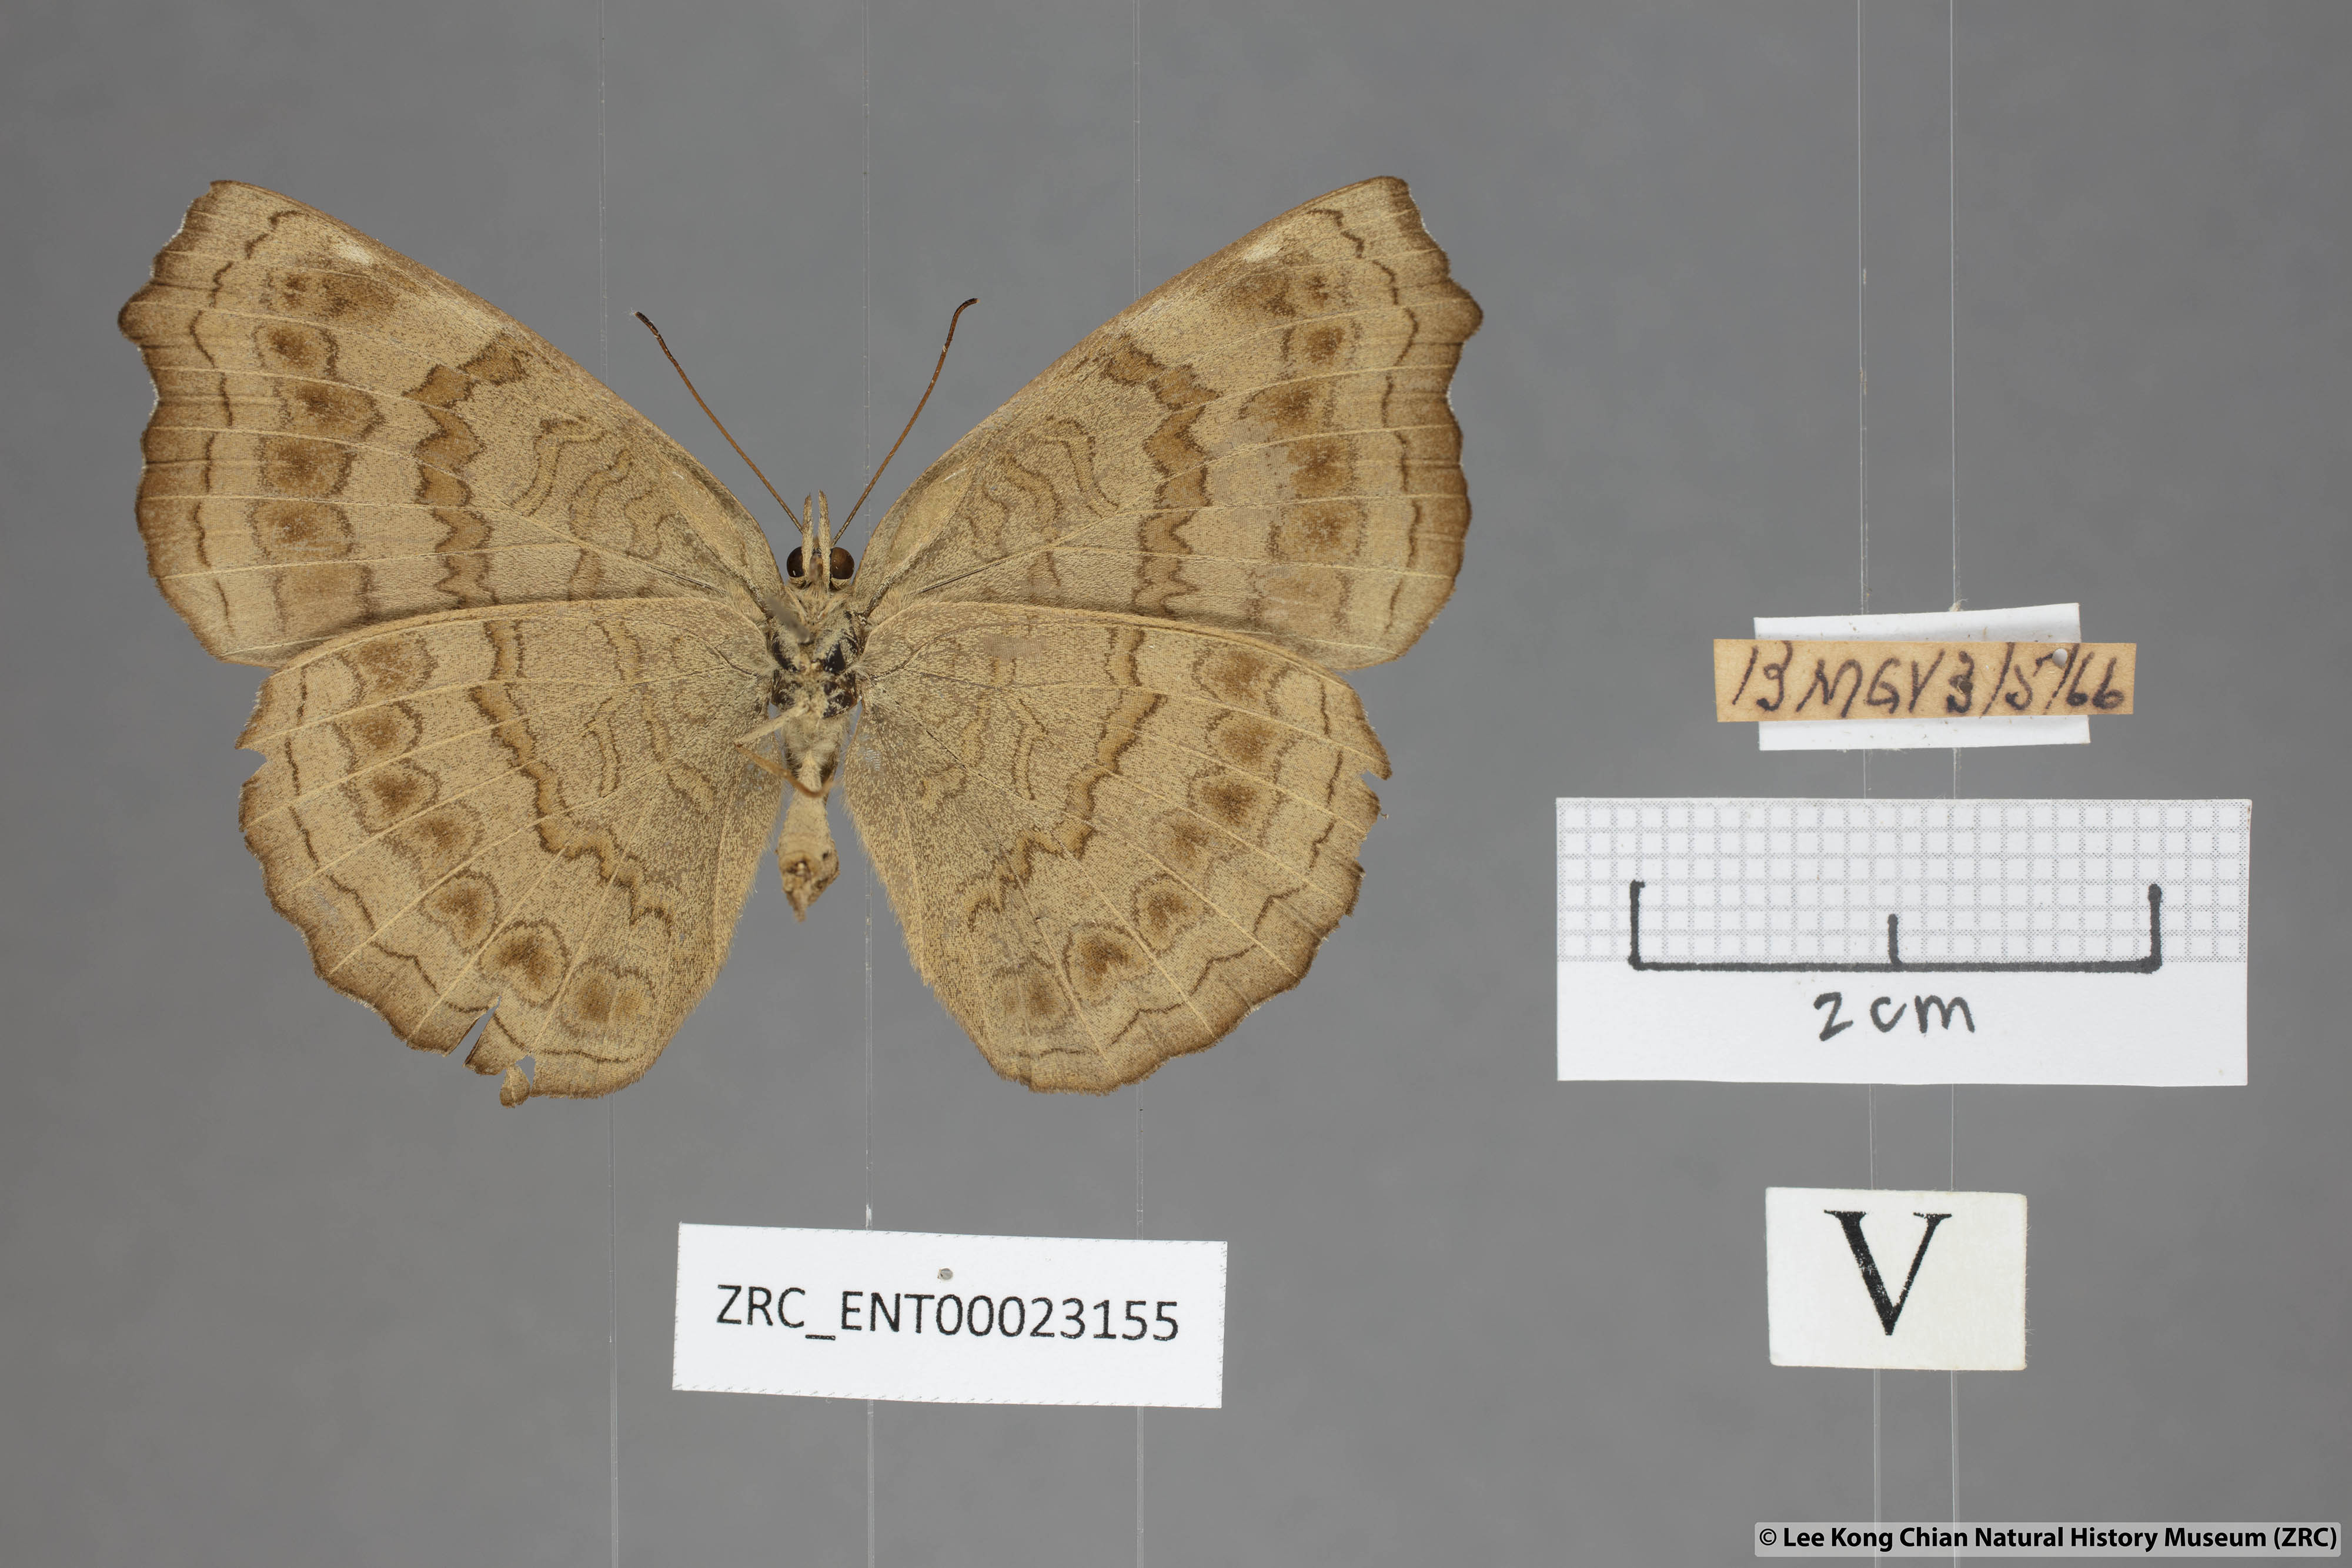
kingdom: Animalia
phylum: Arthropoda
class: Insecta
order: Lepidoptera
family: Nymphalidae
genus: Ariadne
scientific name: Ariadne isaeus
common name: Malayan castor
